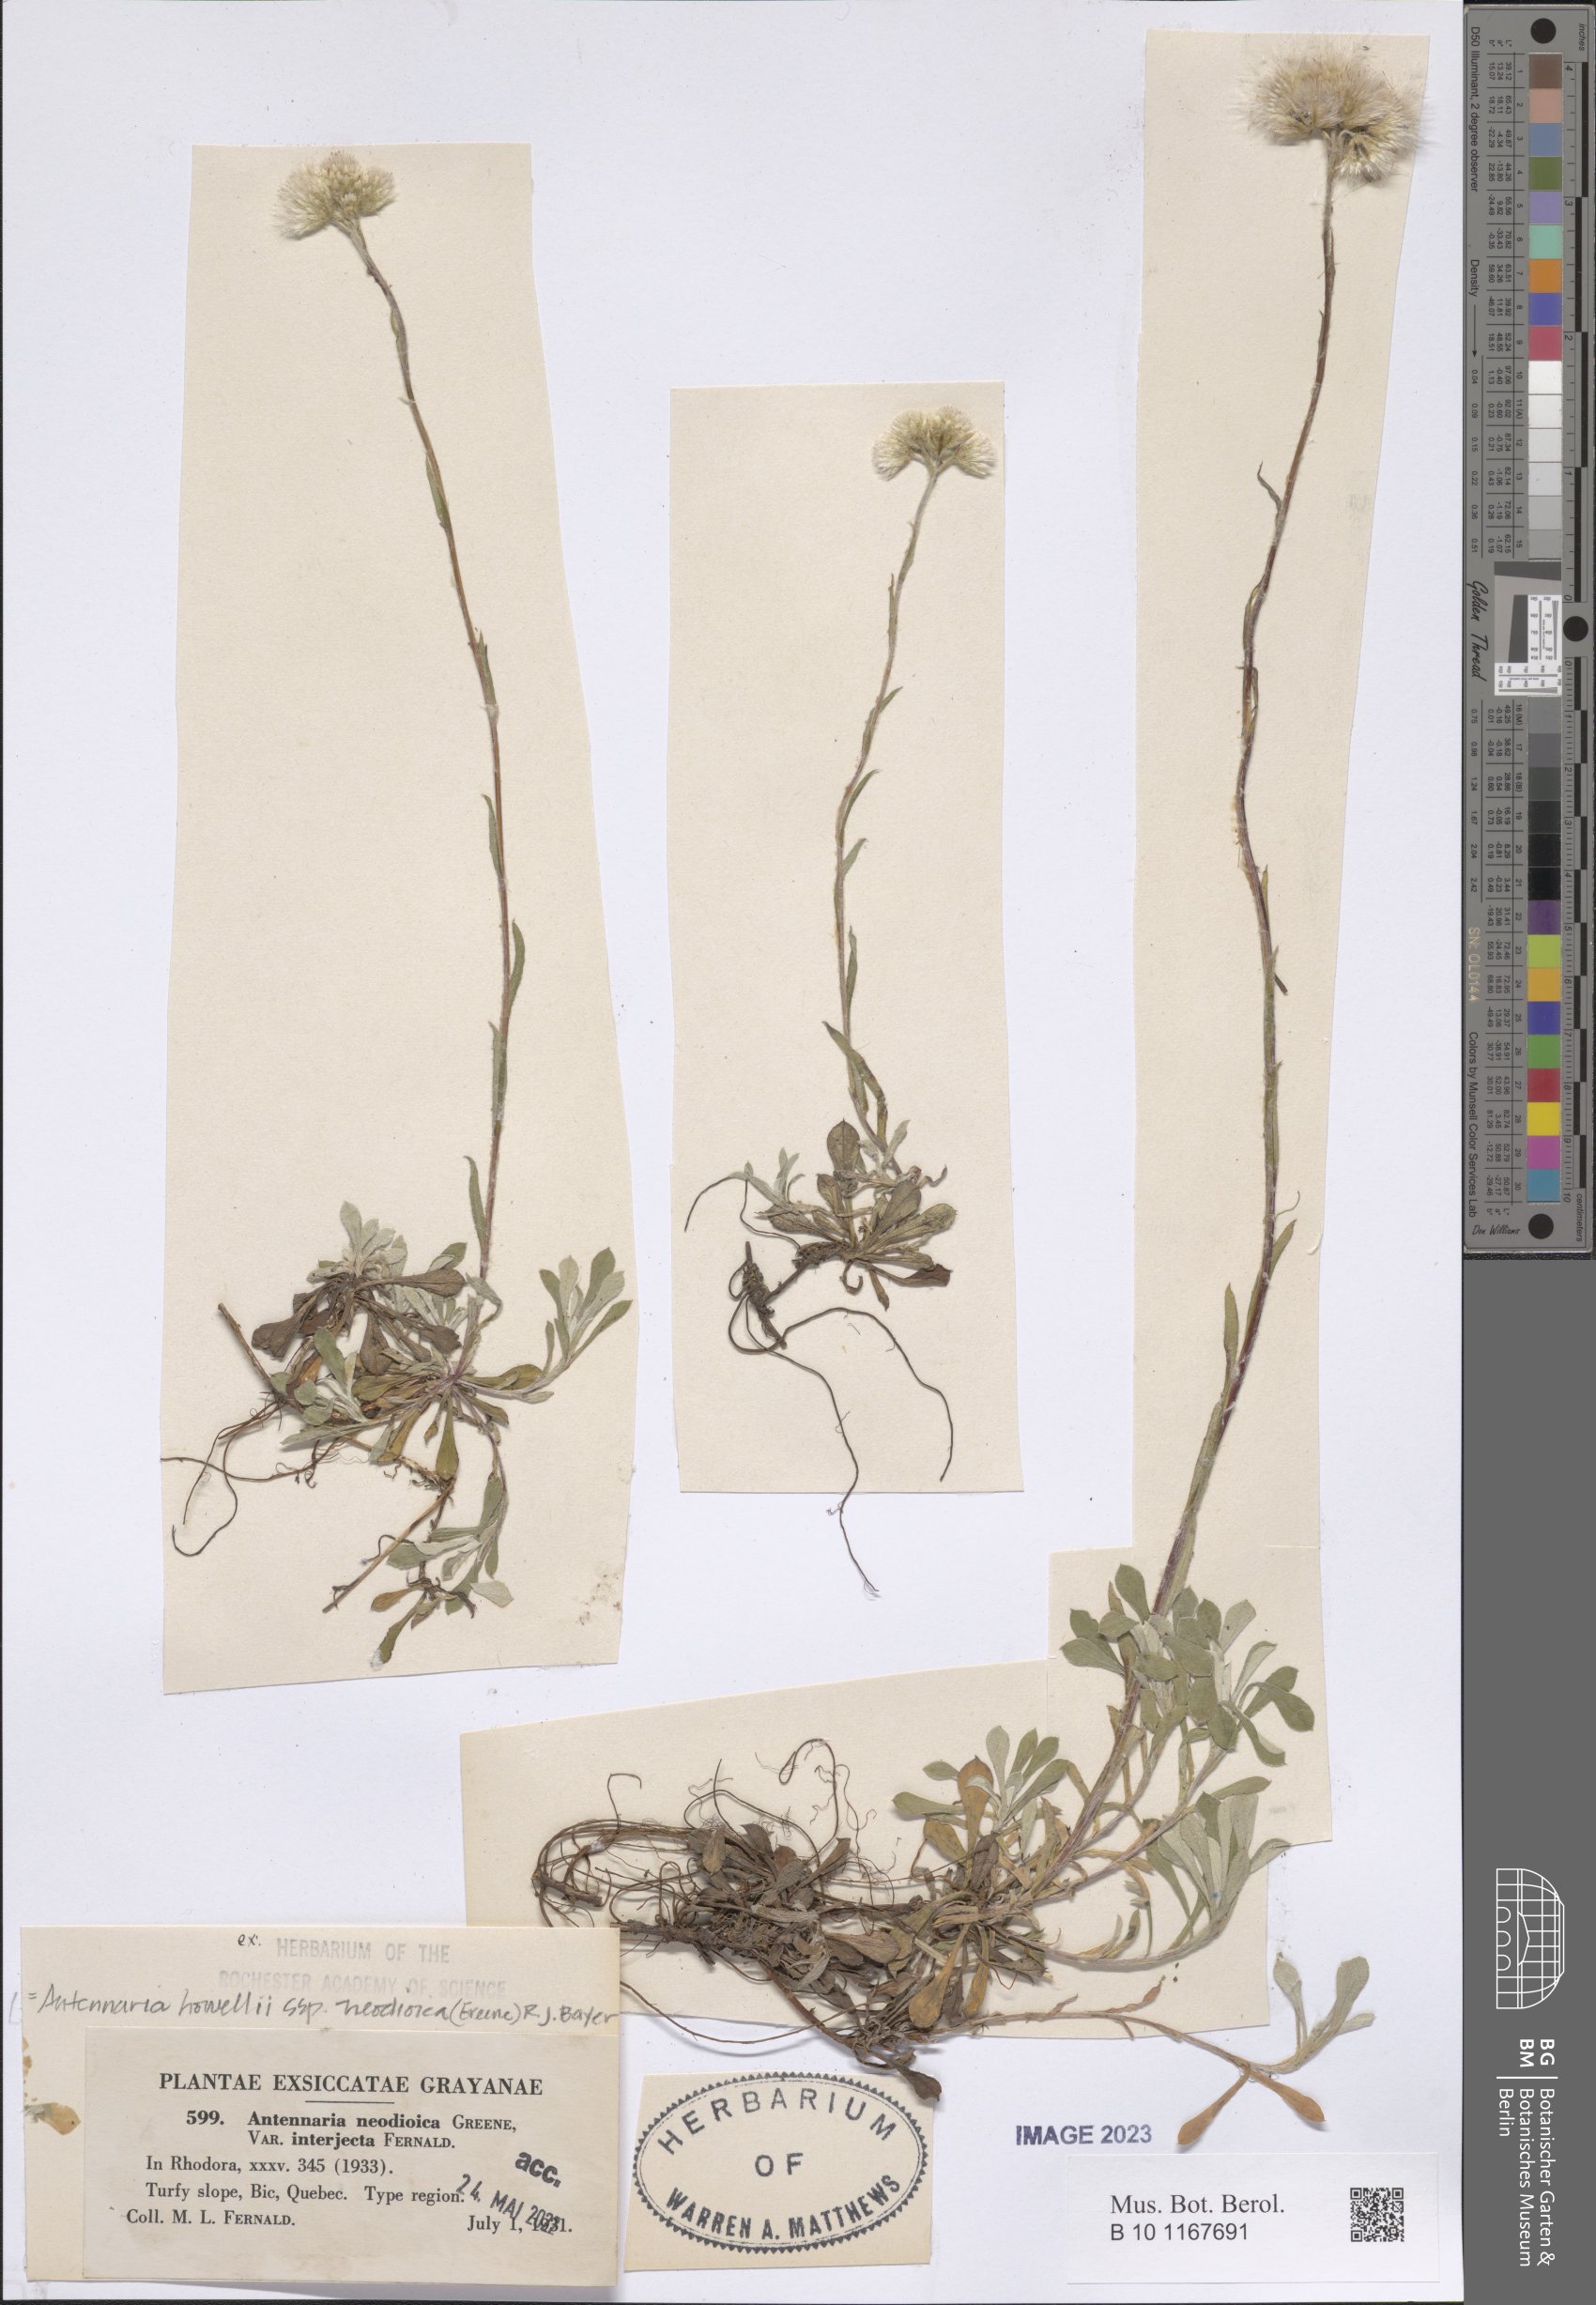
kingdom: Plantae
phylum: Tracheophyta
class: Magnoliopsida
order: Asterales
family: Asteraceae
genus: Antennaria
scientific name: Antennaria howellii
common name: Howell's pussytoes
